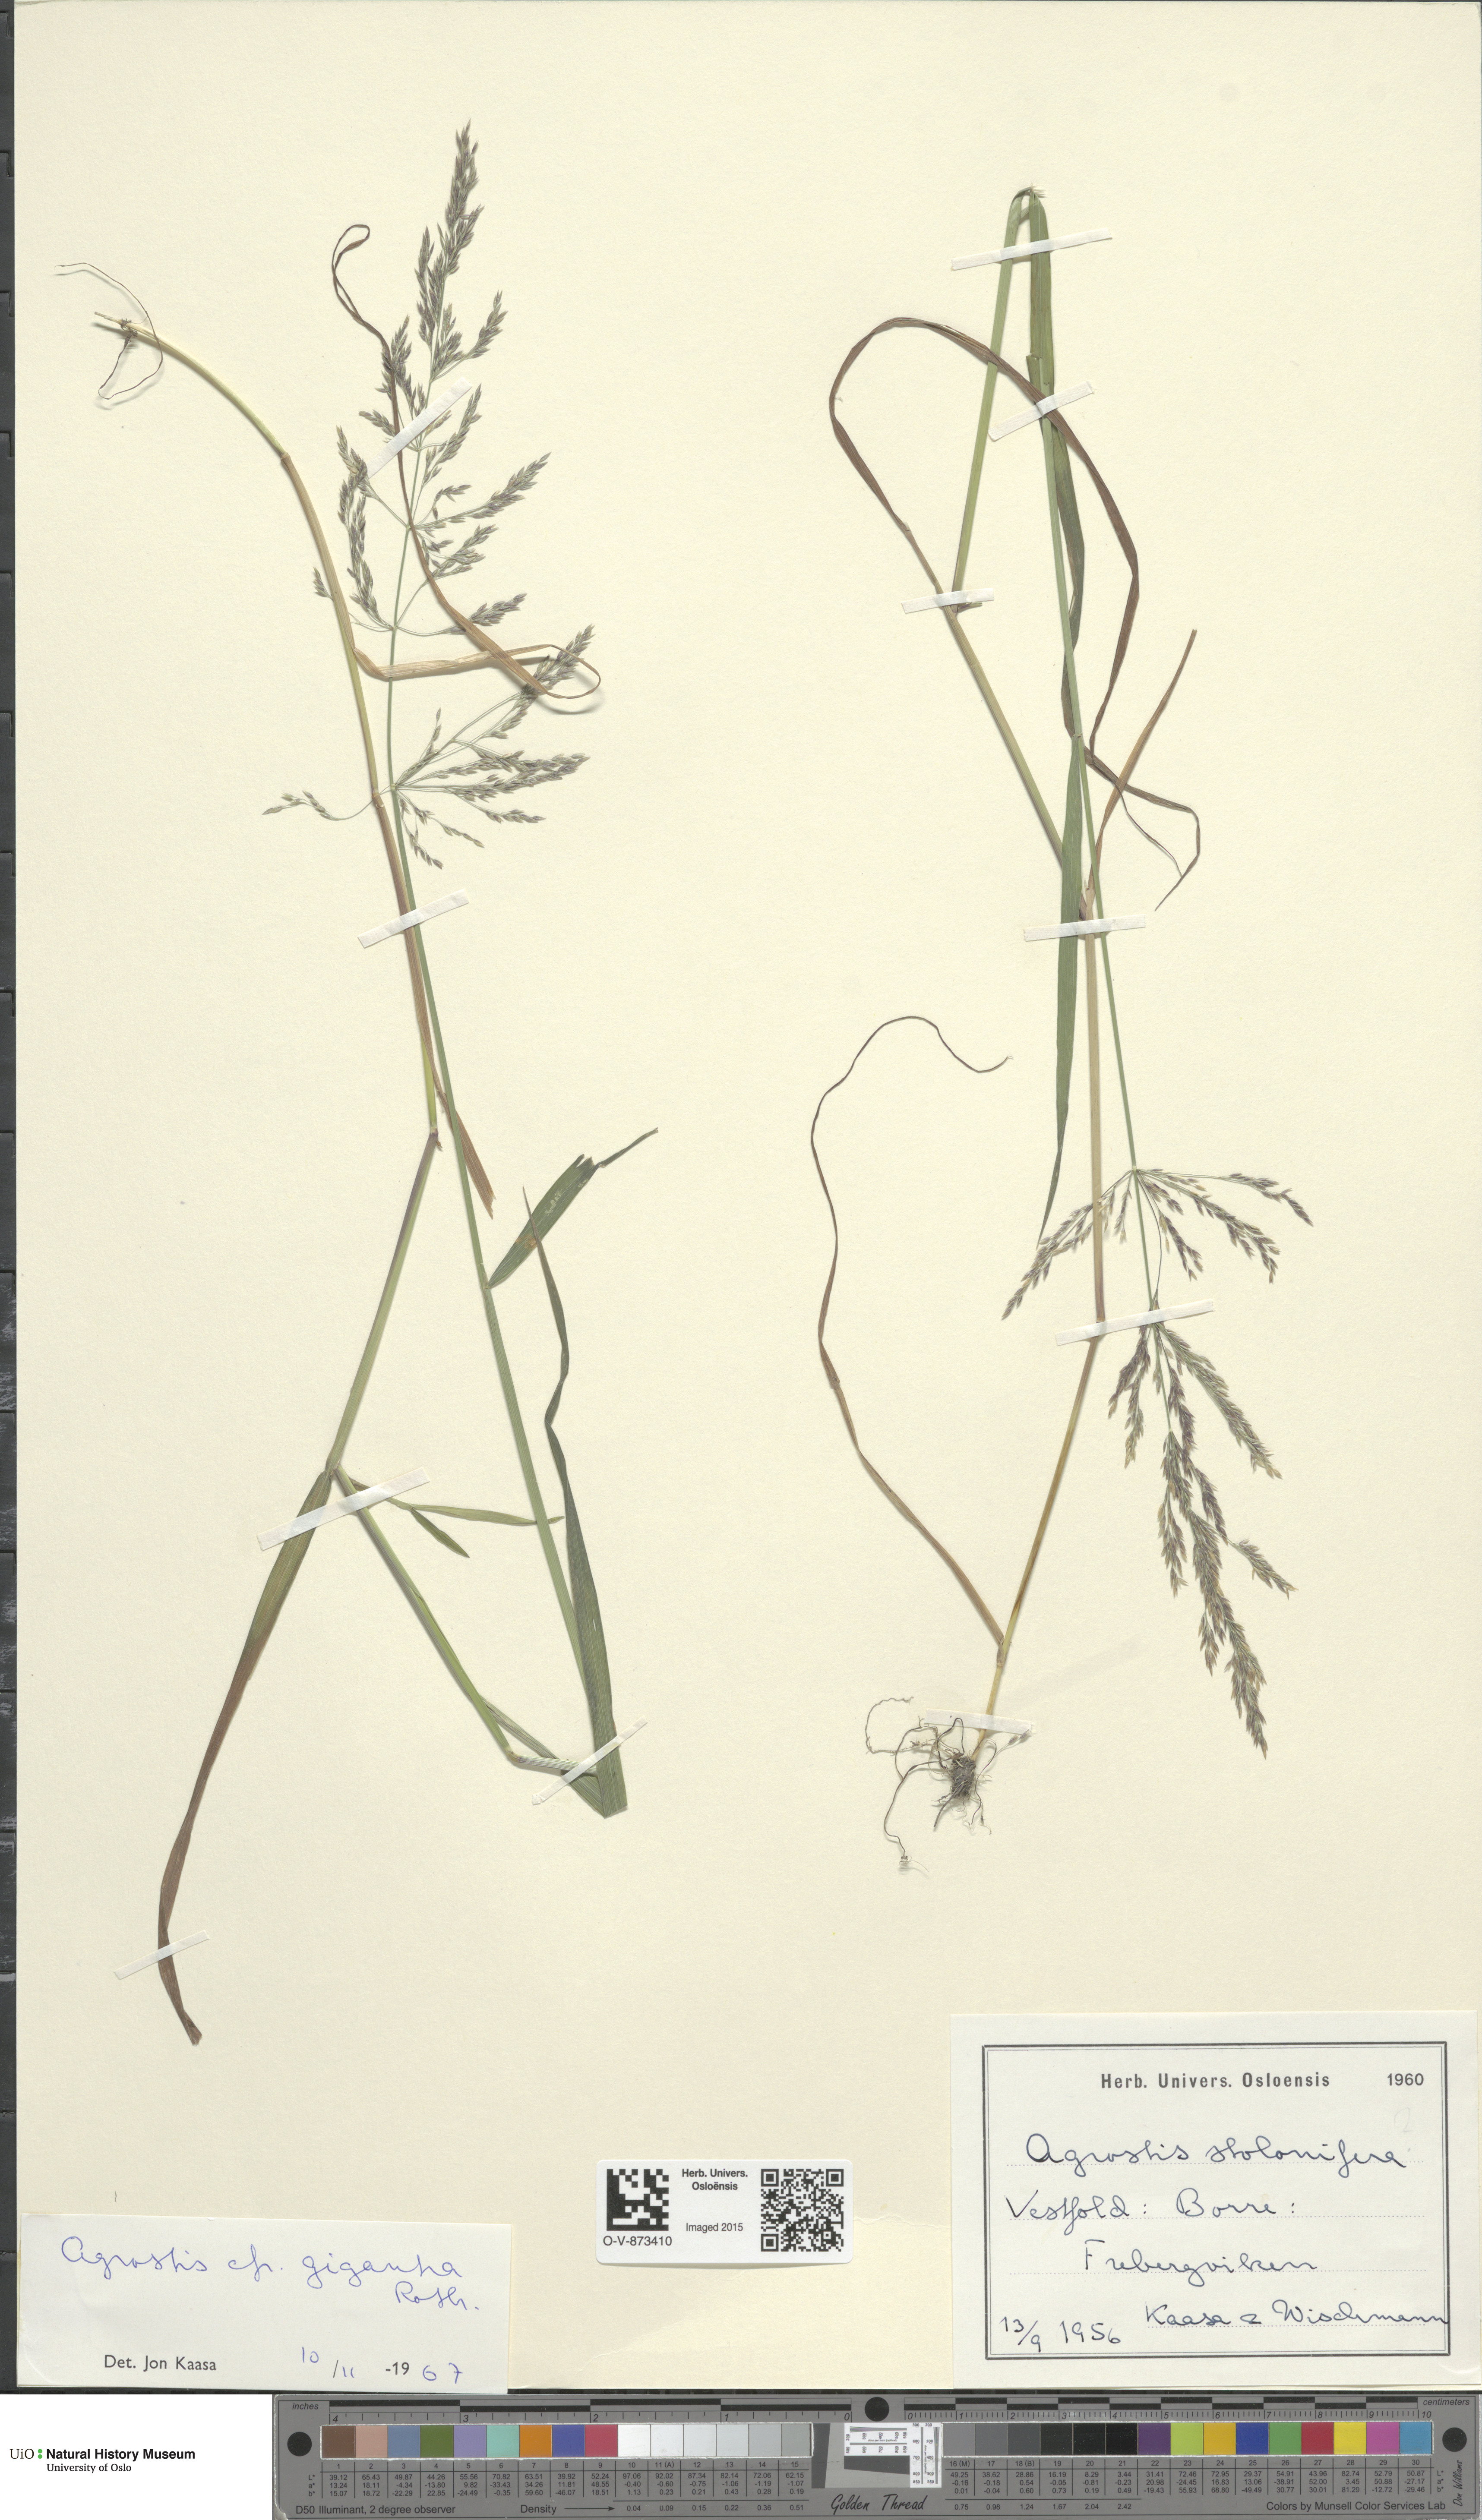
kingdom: Plantae
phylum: Tracheophyta
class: Liliopsida
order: Poales
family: Poaceae
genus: Agrostis
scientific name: Agrostis gigantea
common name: Black bent
